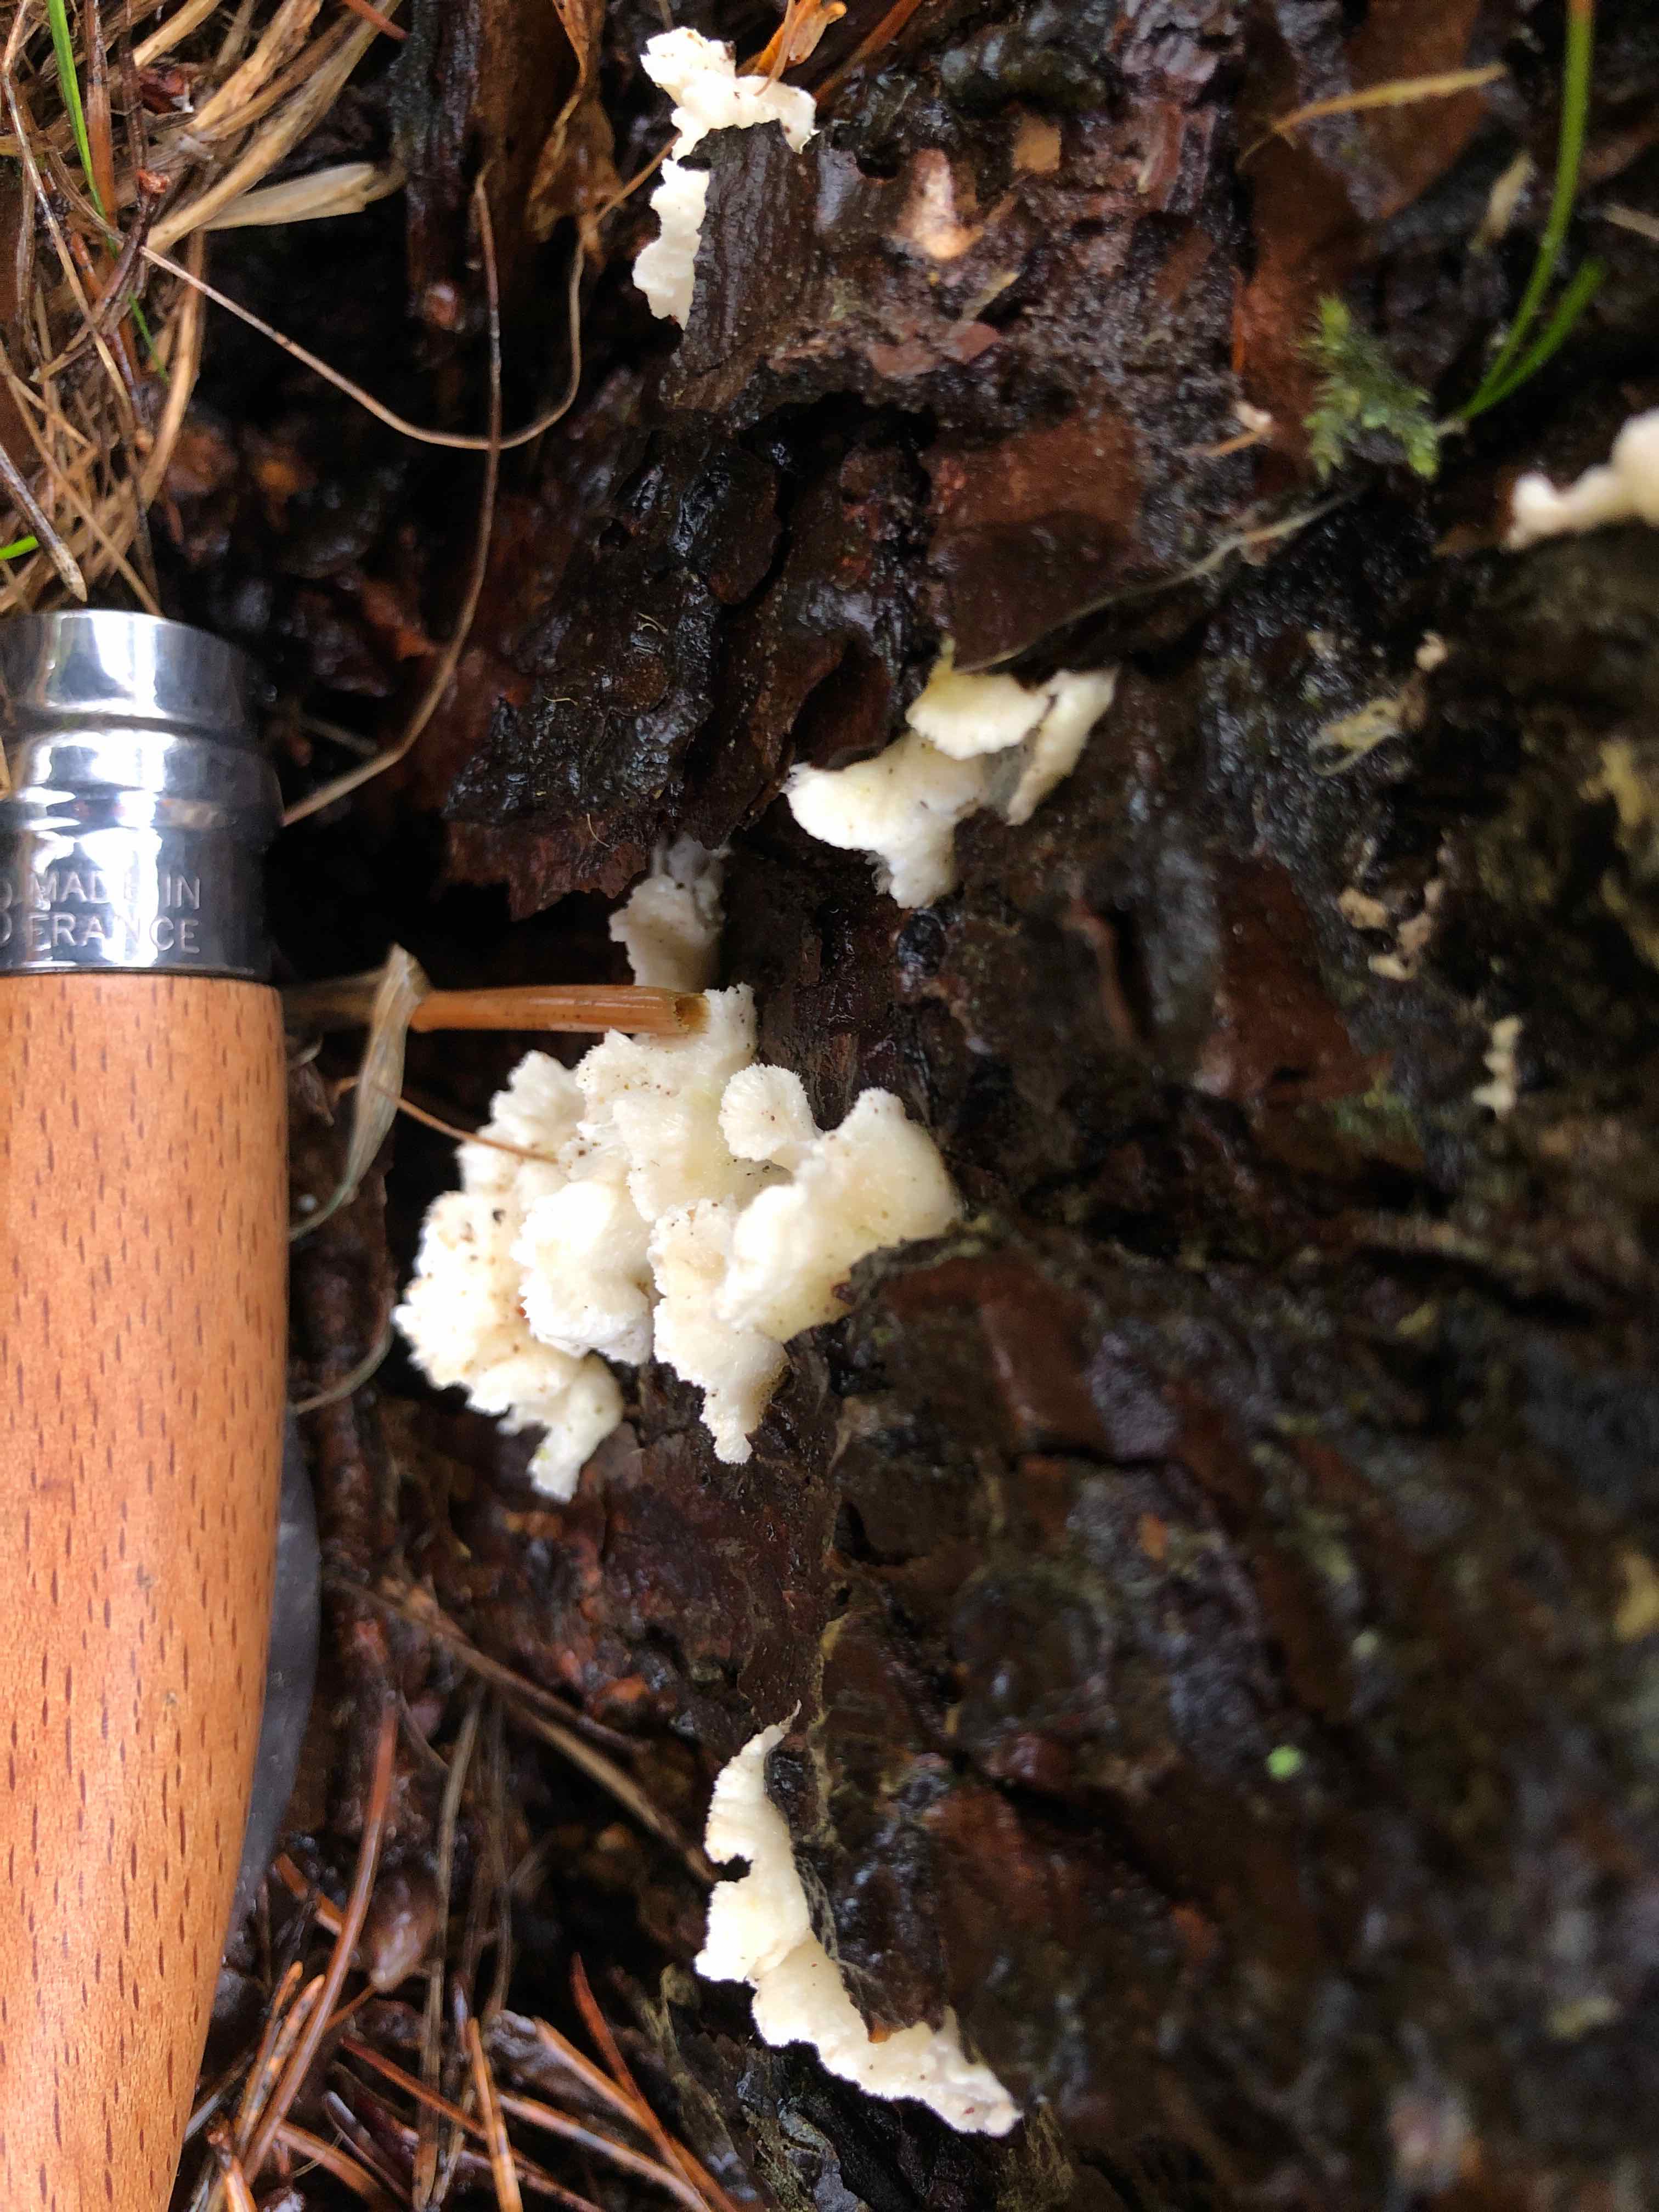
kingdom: Fungi
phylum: Basidiomycota
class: Agaricomycetes
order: Polyporales
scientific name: Polyporales
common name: poresvampordenen
